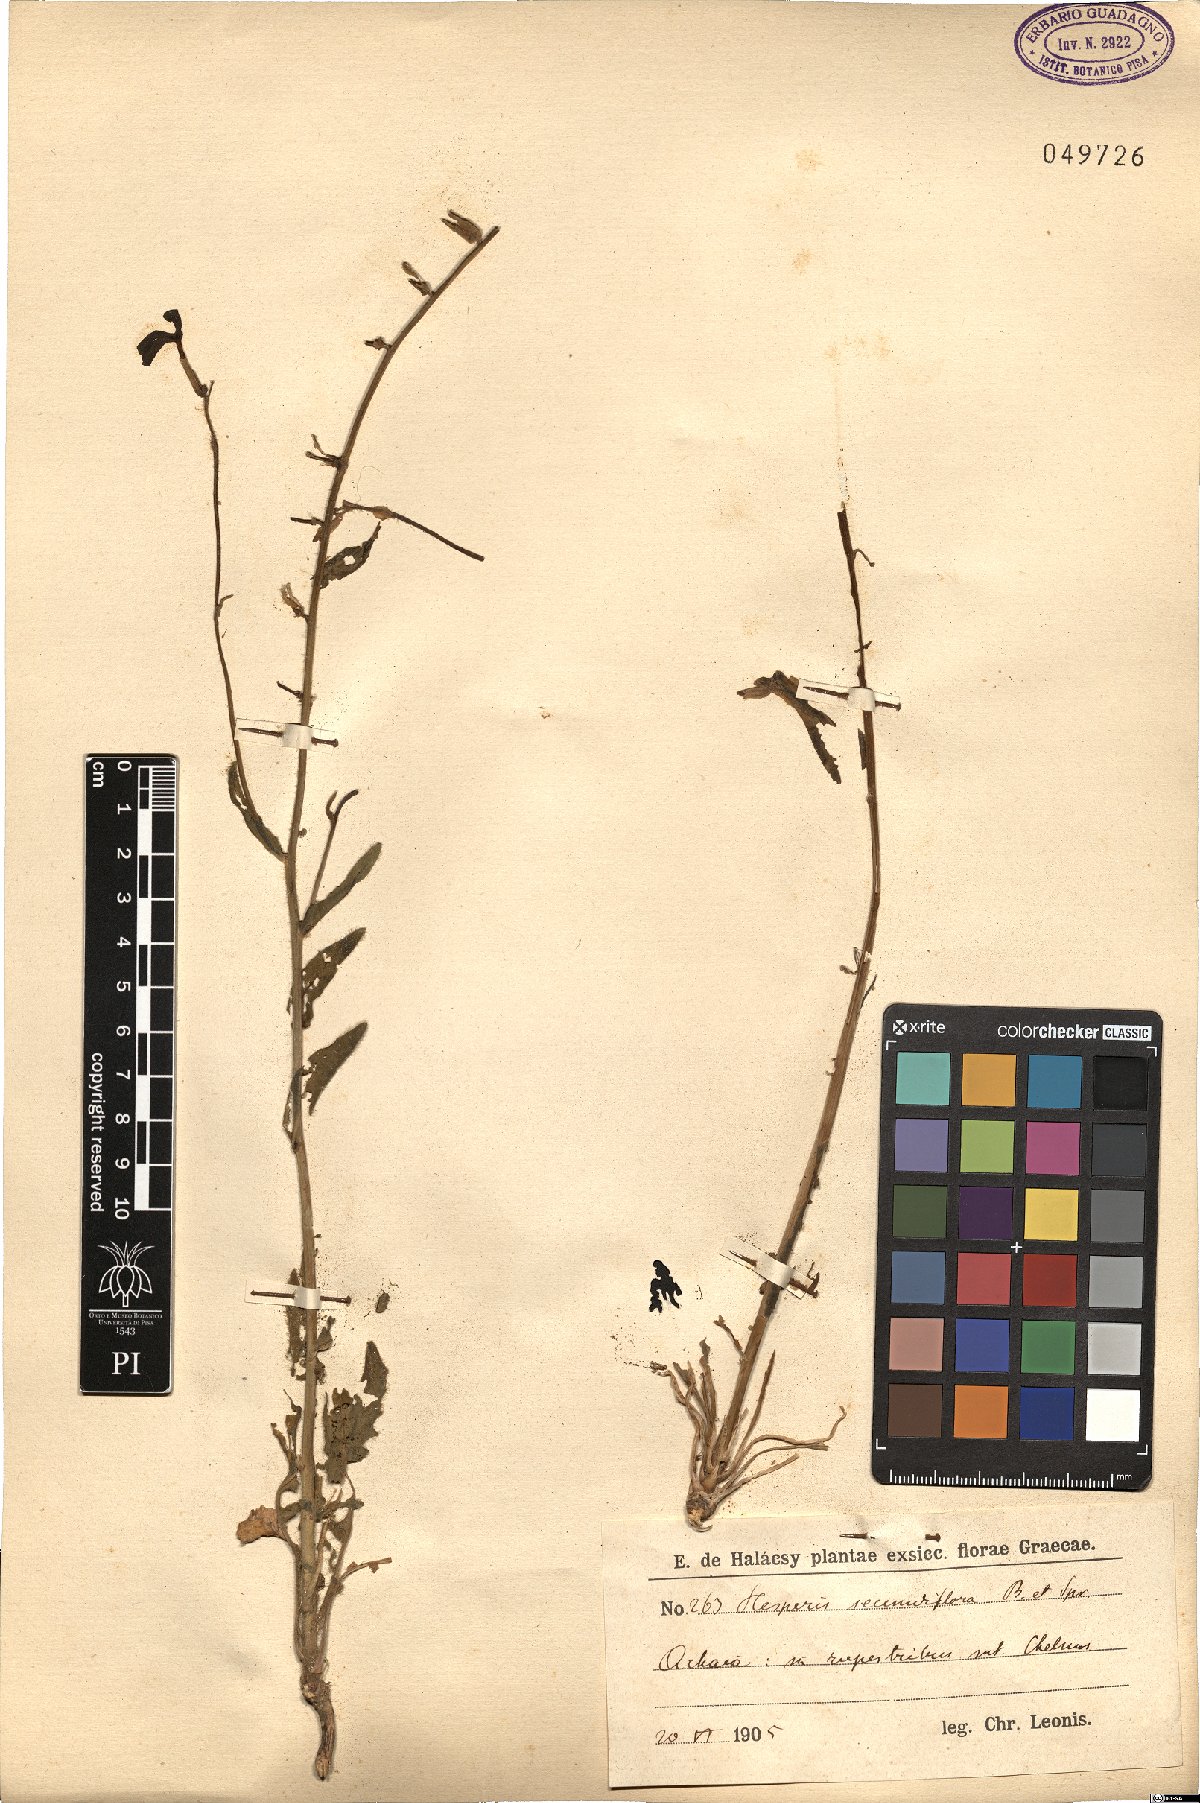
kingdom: Plantae
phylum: Tracheophyta
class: Magnoliopsida
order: Brassicales
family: Brassicaceae
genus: Hesperis
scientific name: Hesperis laciniata
